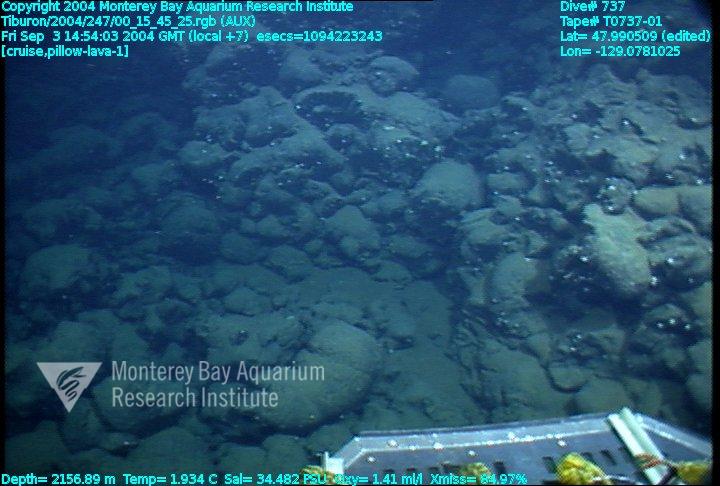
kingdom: Animalia
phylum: Porifera
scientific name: Porifera
